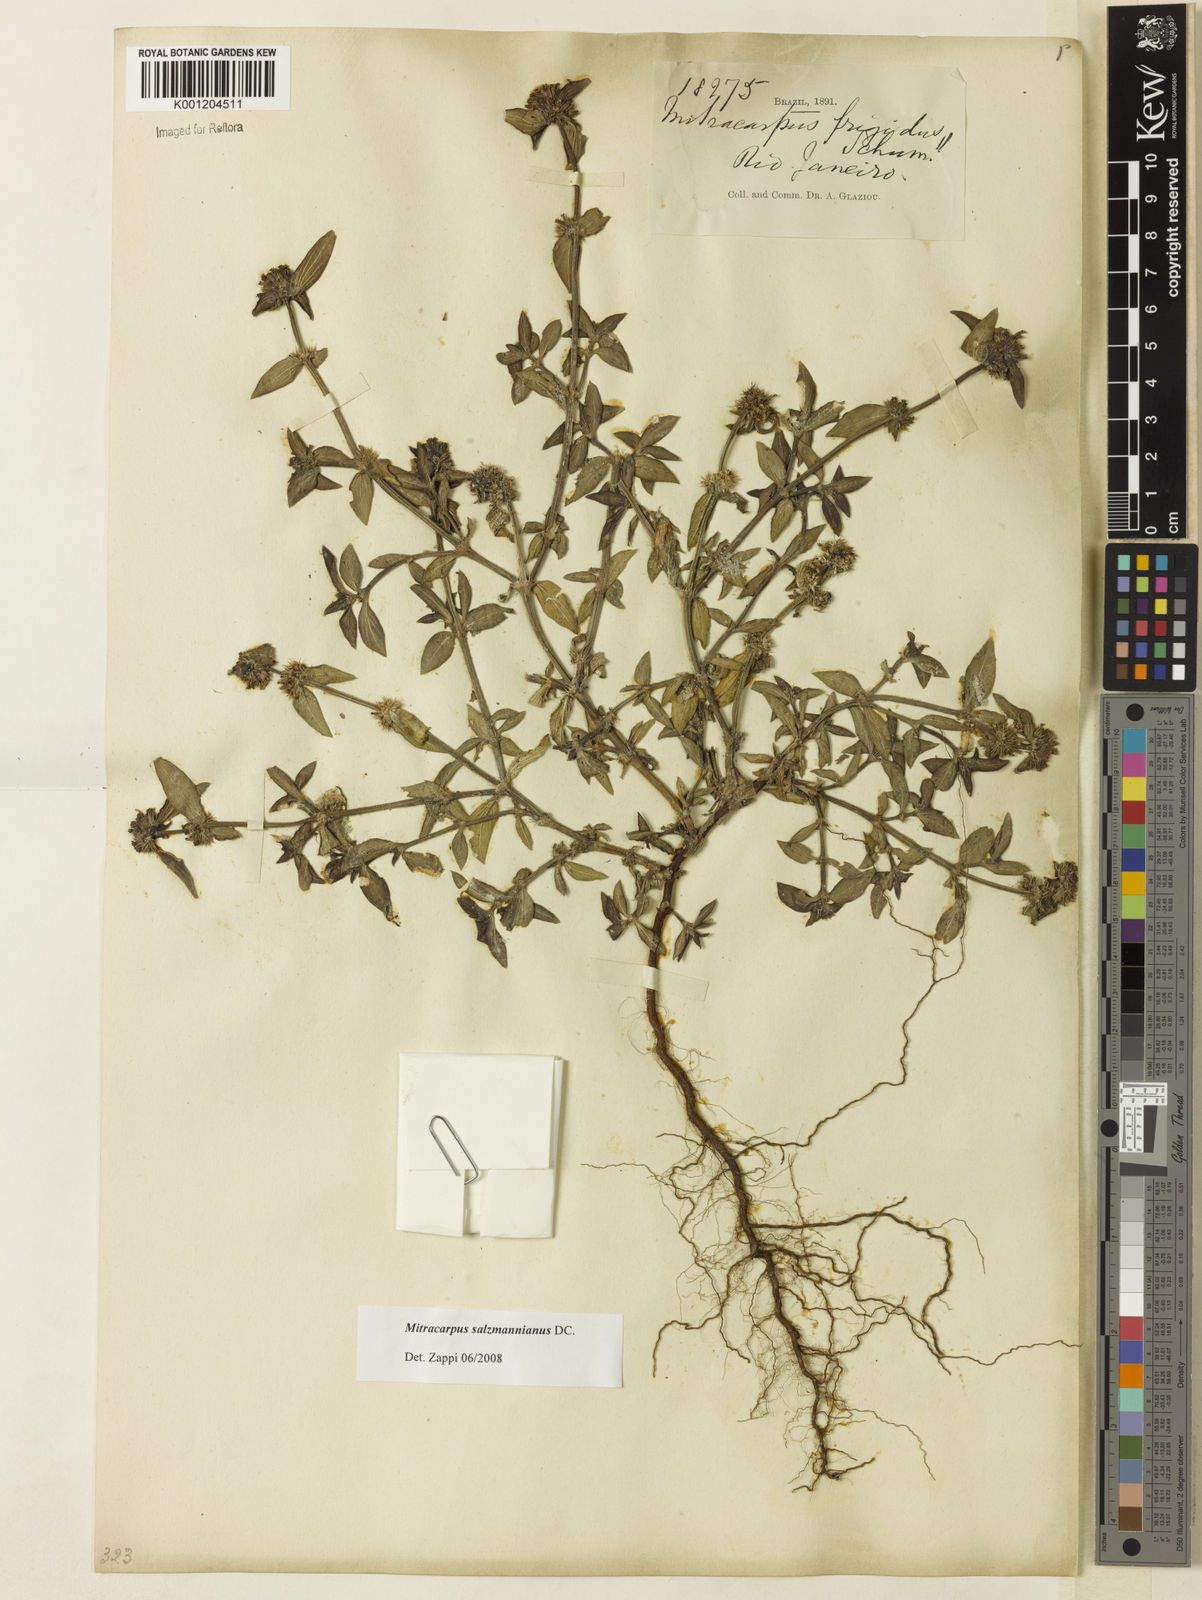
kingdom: Plantae
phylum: Tracheophyta
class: Magnoliopsida
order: Gentianales
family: Rubiaceae
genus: Mitracarpus
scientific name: Mitracarpus salzmannianus
